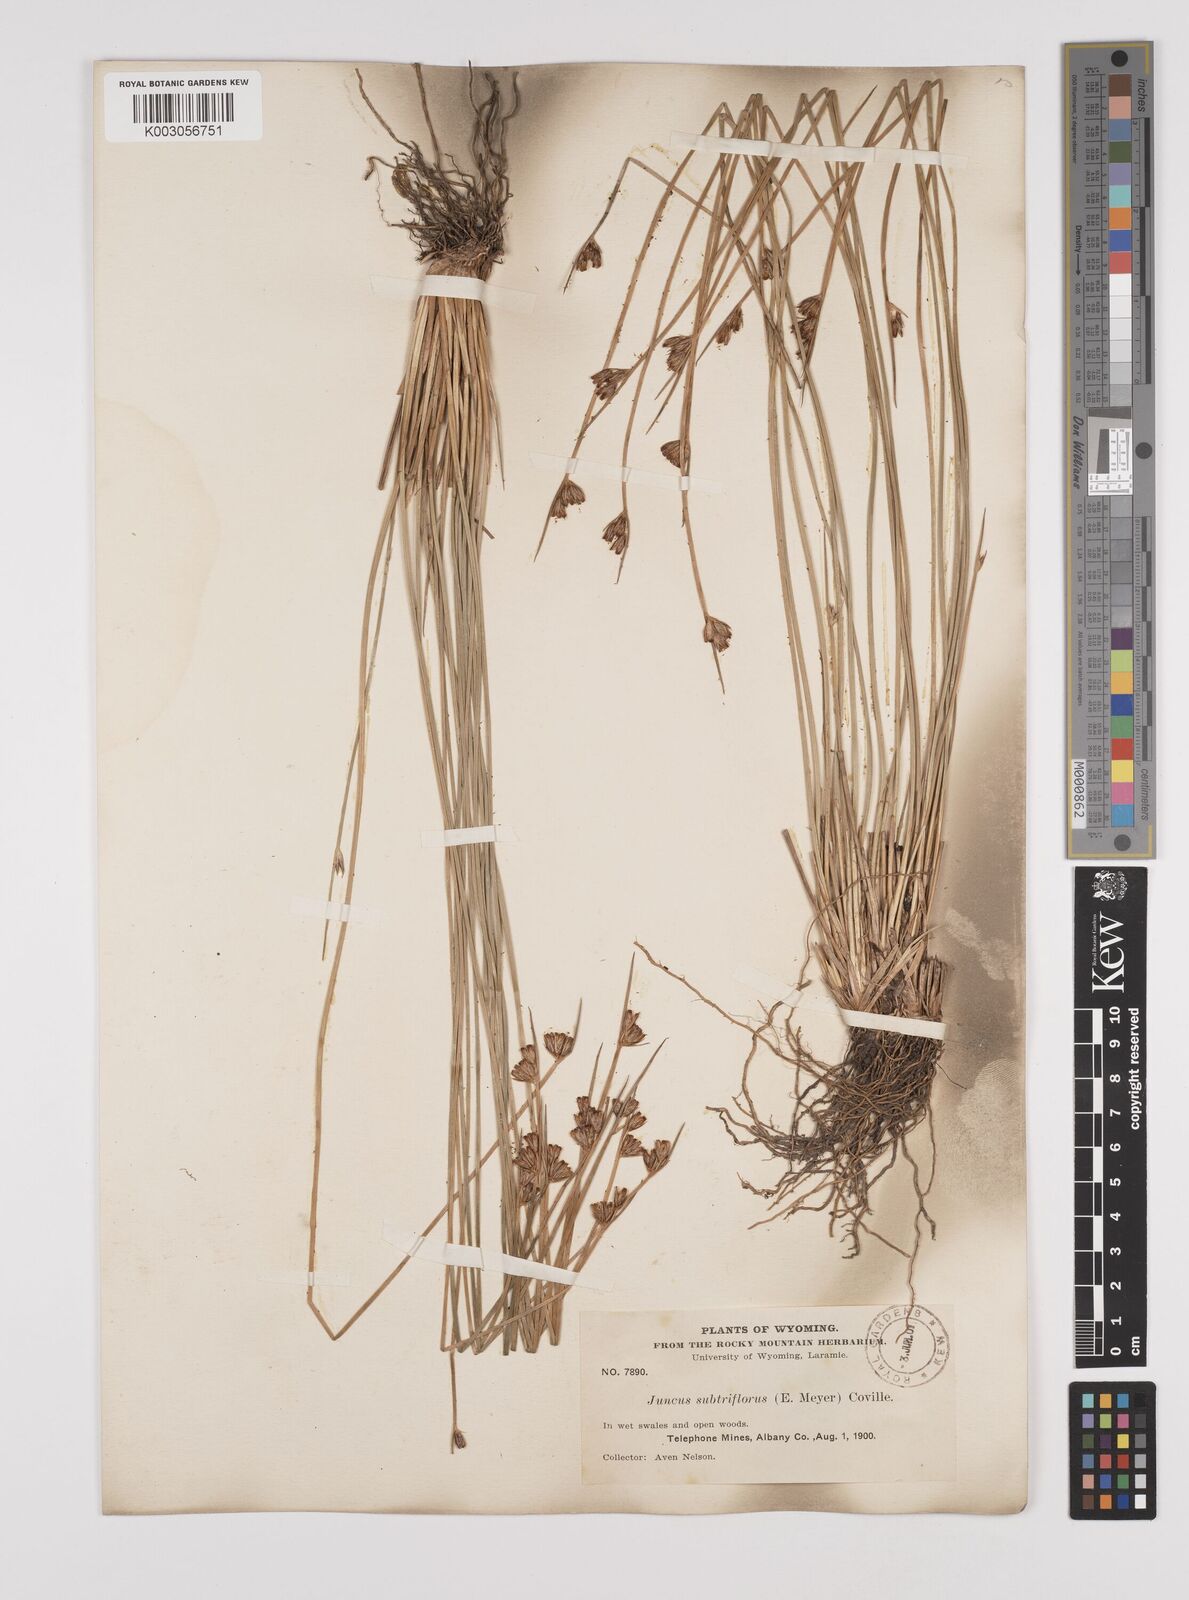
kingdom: Plantae
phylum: Tracheophyta
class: Liliopsida
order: Poales
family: Juncaceae
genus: Juncus
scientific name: Juncus drummondii
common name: Drummond's rush
